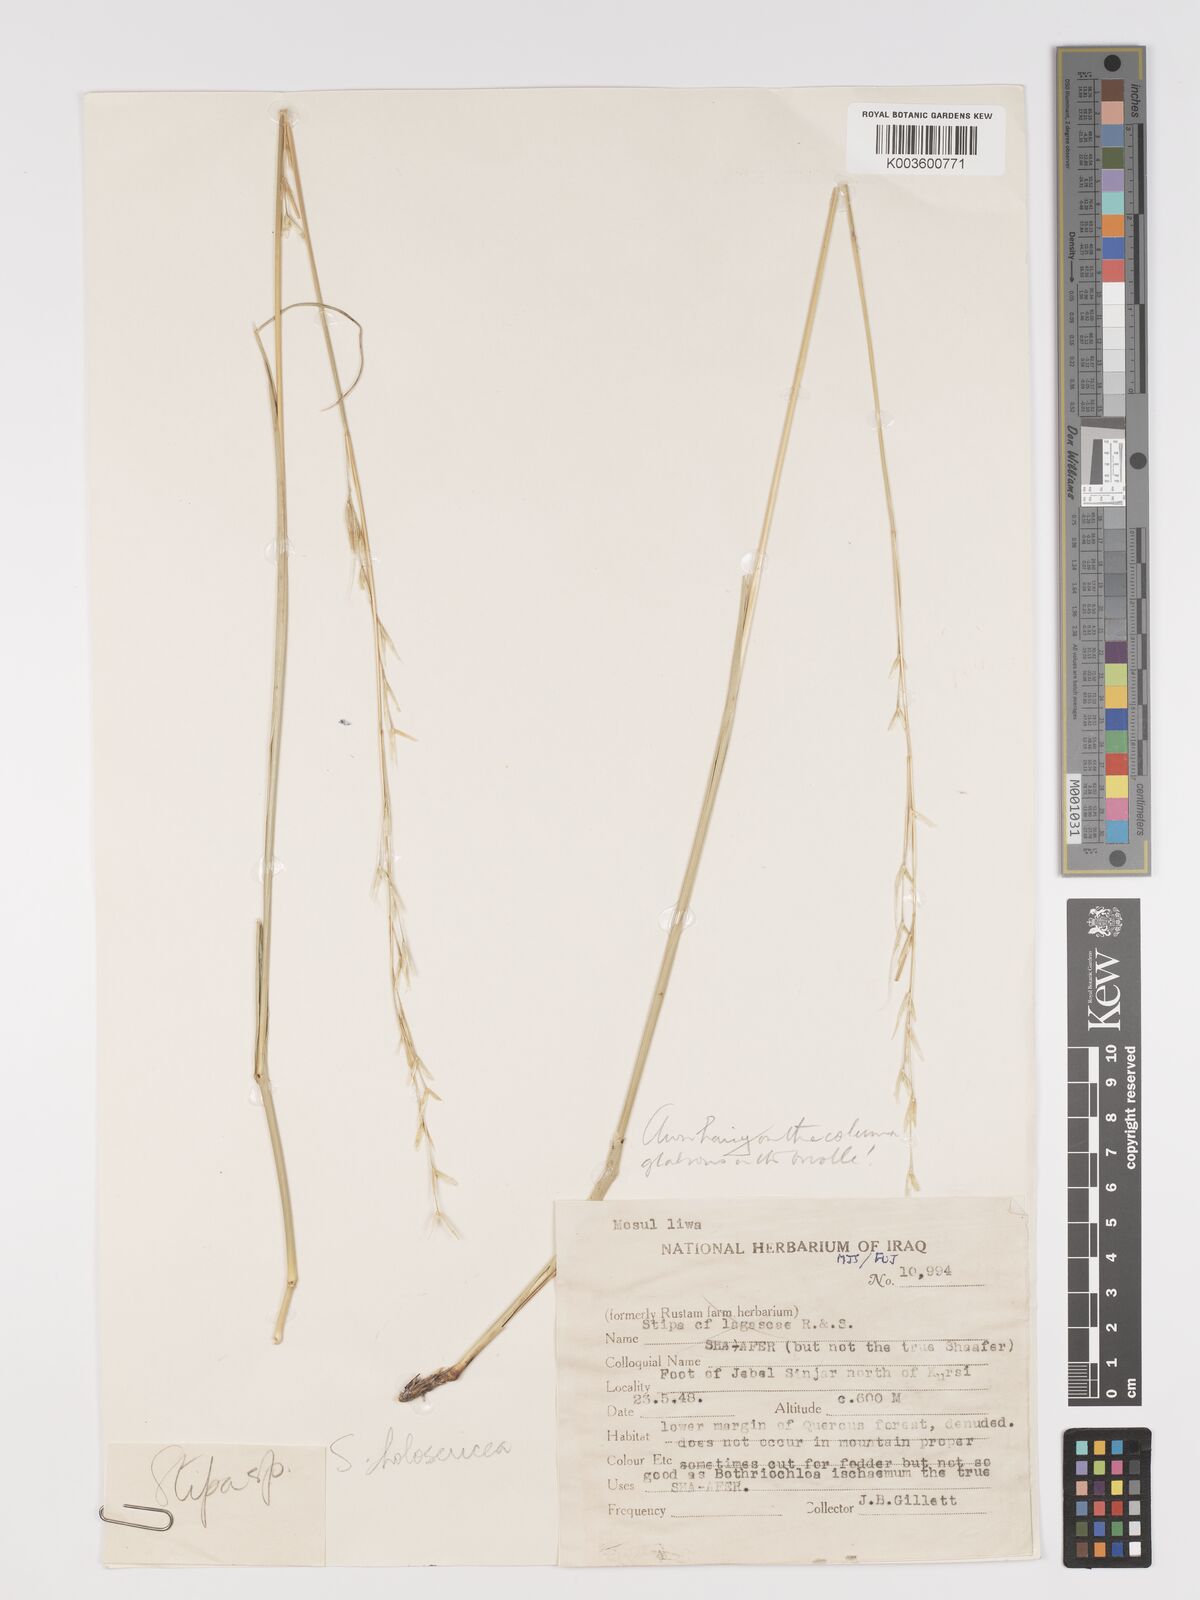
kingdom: Plantae
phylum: Tracheophyta
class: Liliopsida
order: Poales
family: Poaceae
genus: Stipa
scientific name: Stipa lagascae
